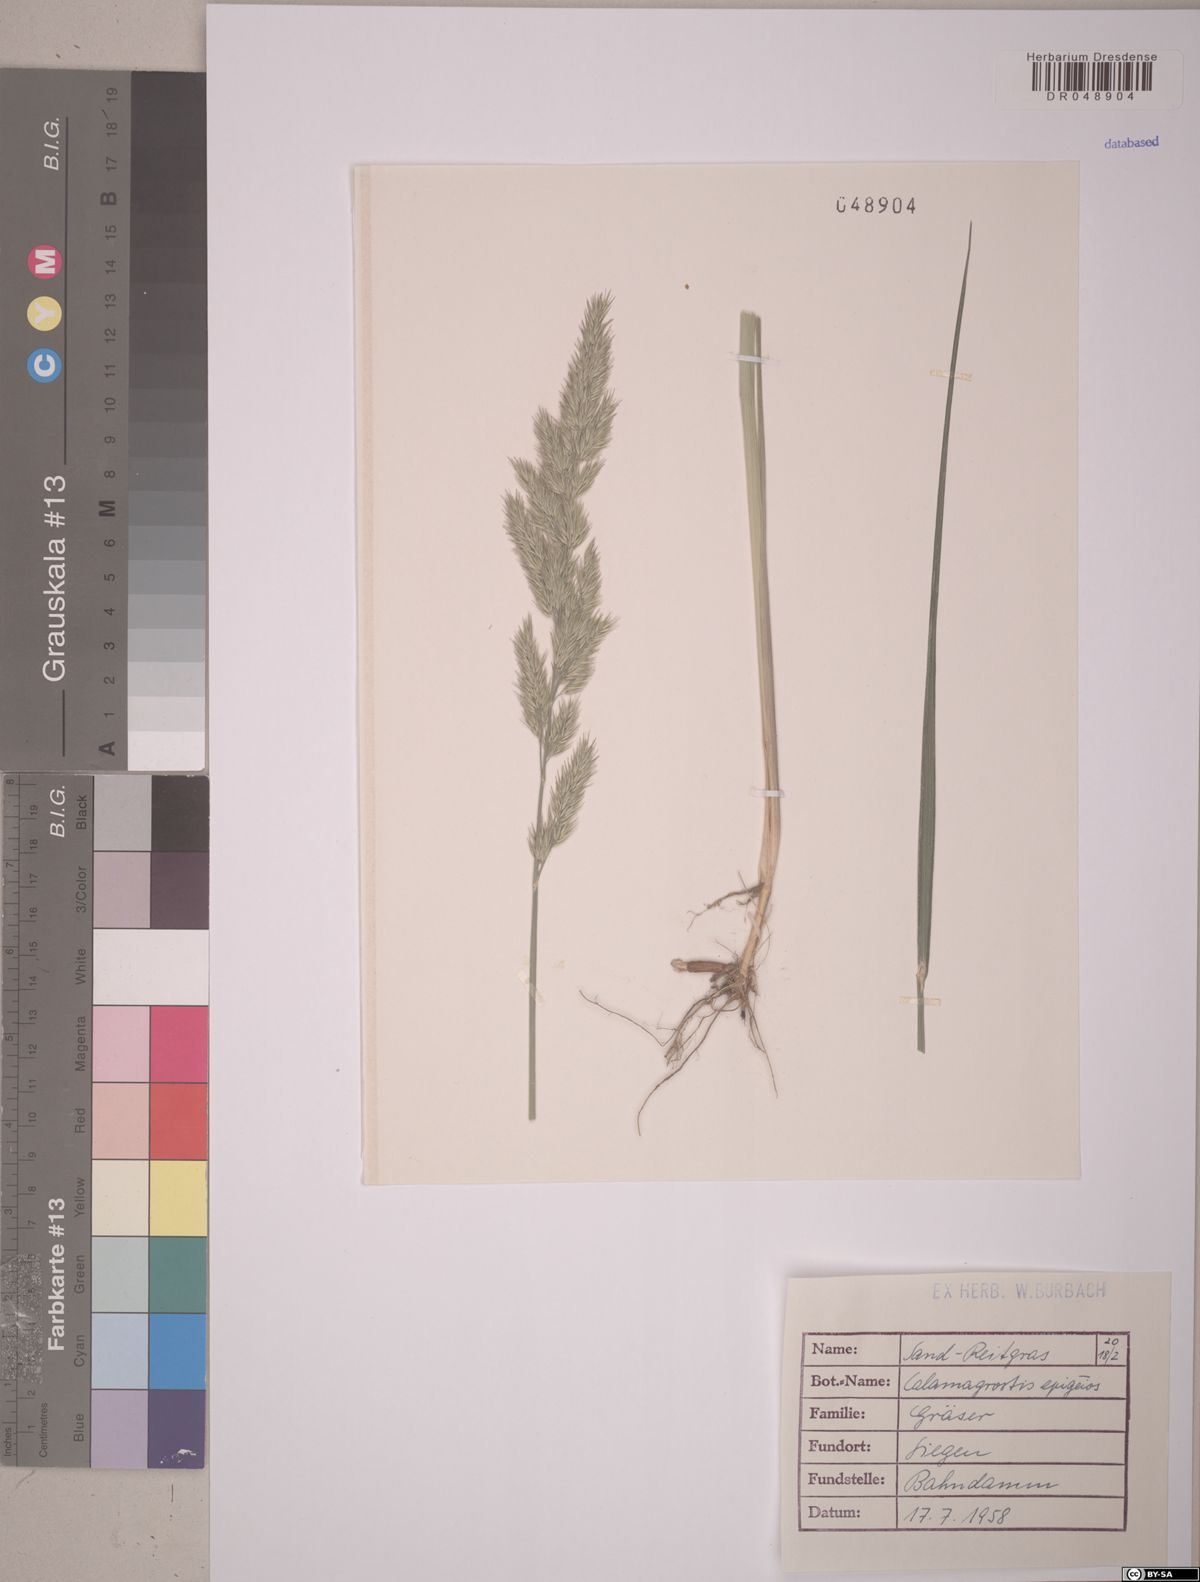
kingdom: Plantae
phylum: Tracheophyta
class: Liliopsida
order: Poales
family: Poaceae
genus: Calamagrostis
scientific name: Calamagrostis epigejos
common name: Wood small-reed
